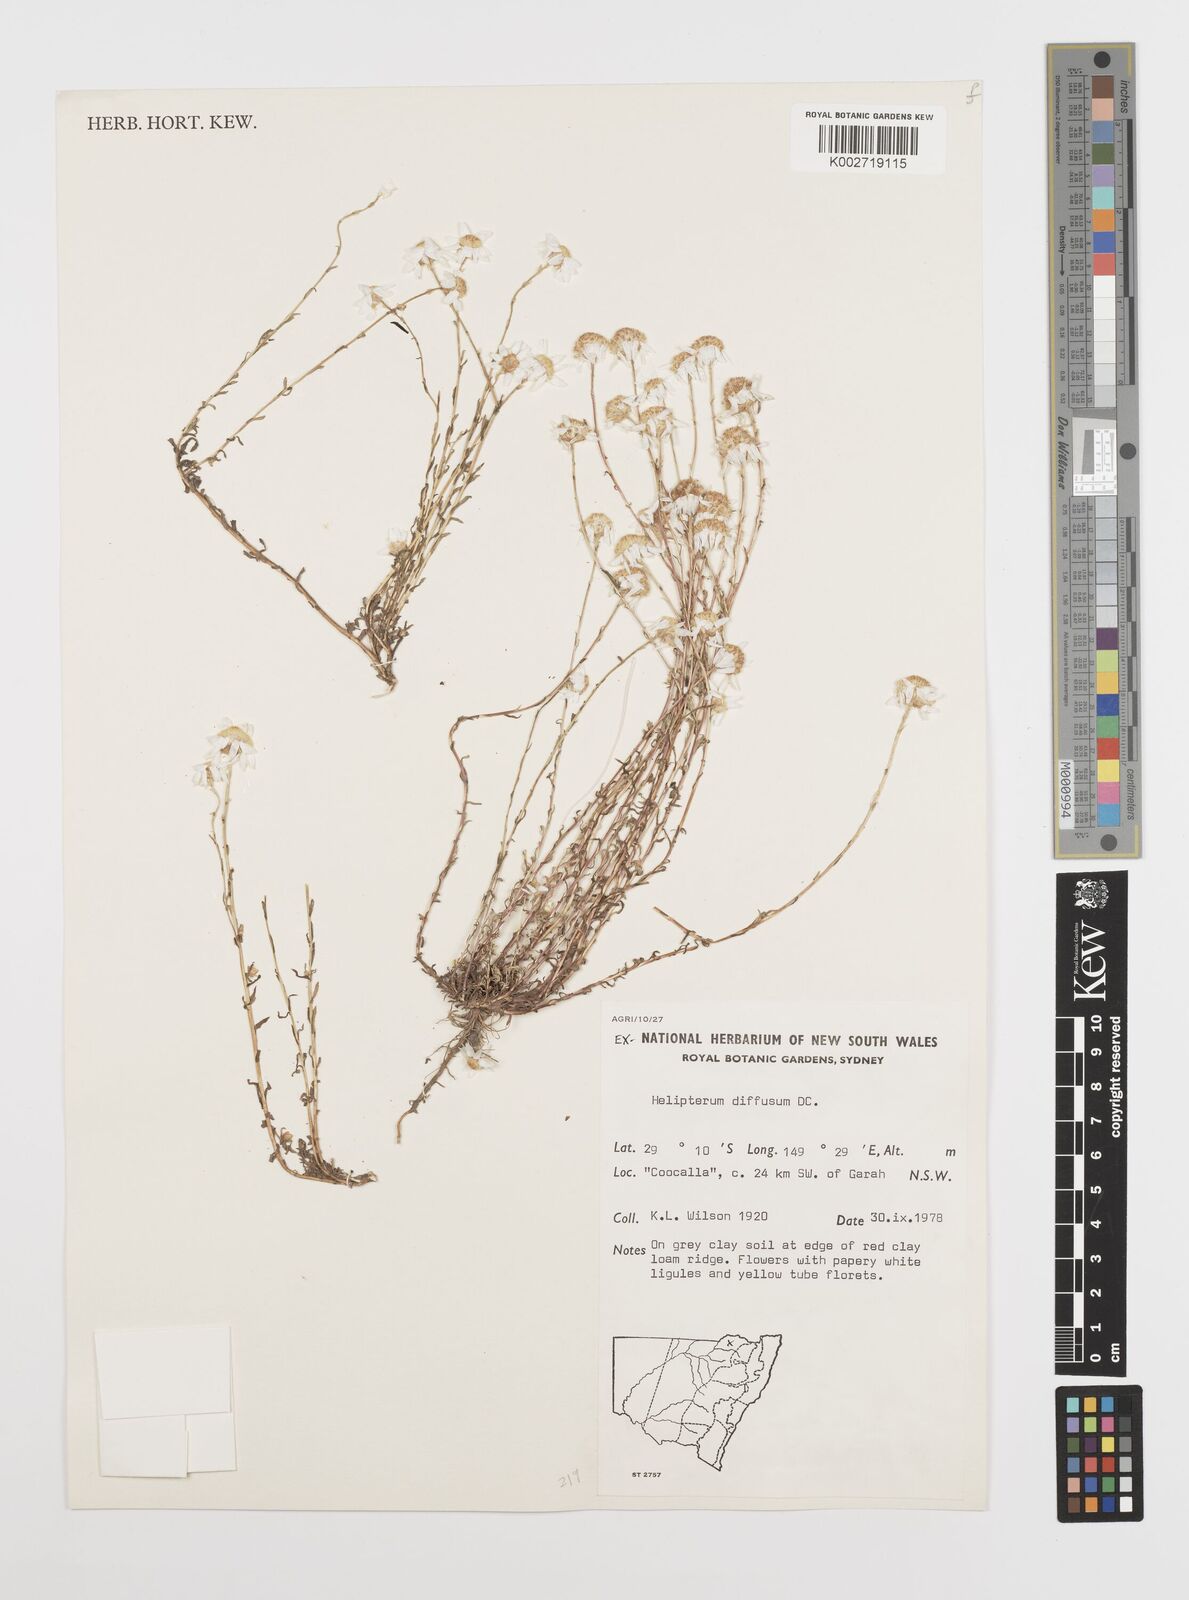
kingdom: Plantae
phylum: Tracheophyta
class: Magnoliopsida
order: Asterales
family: Asteraceae
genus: Rhodanthe
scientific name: Rhodanthe diffusa
